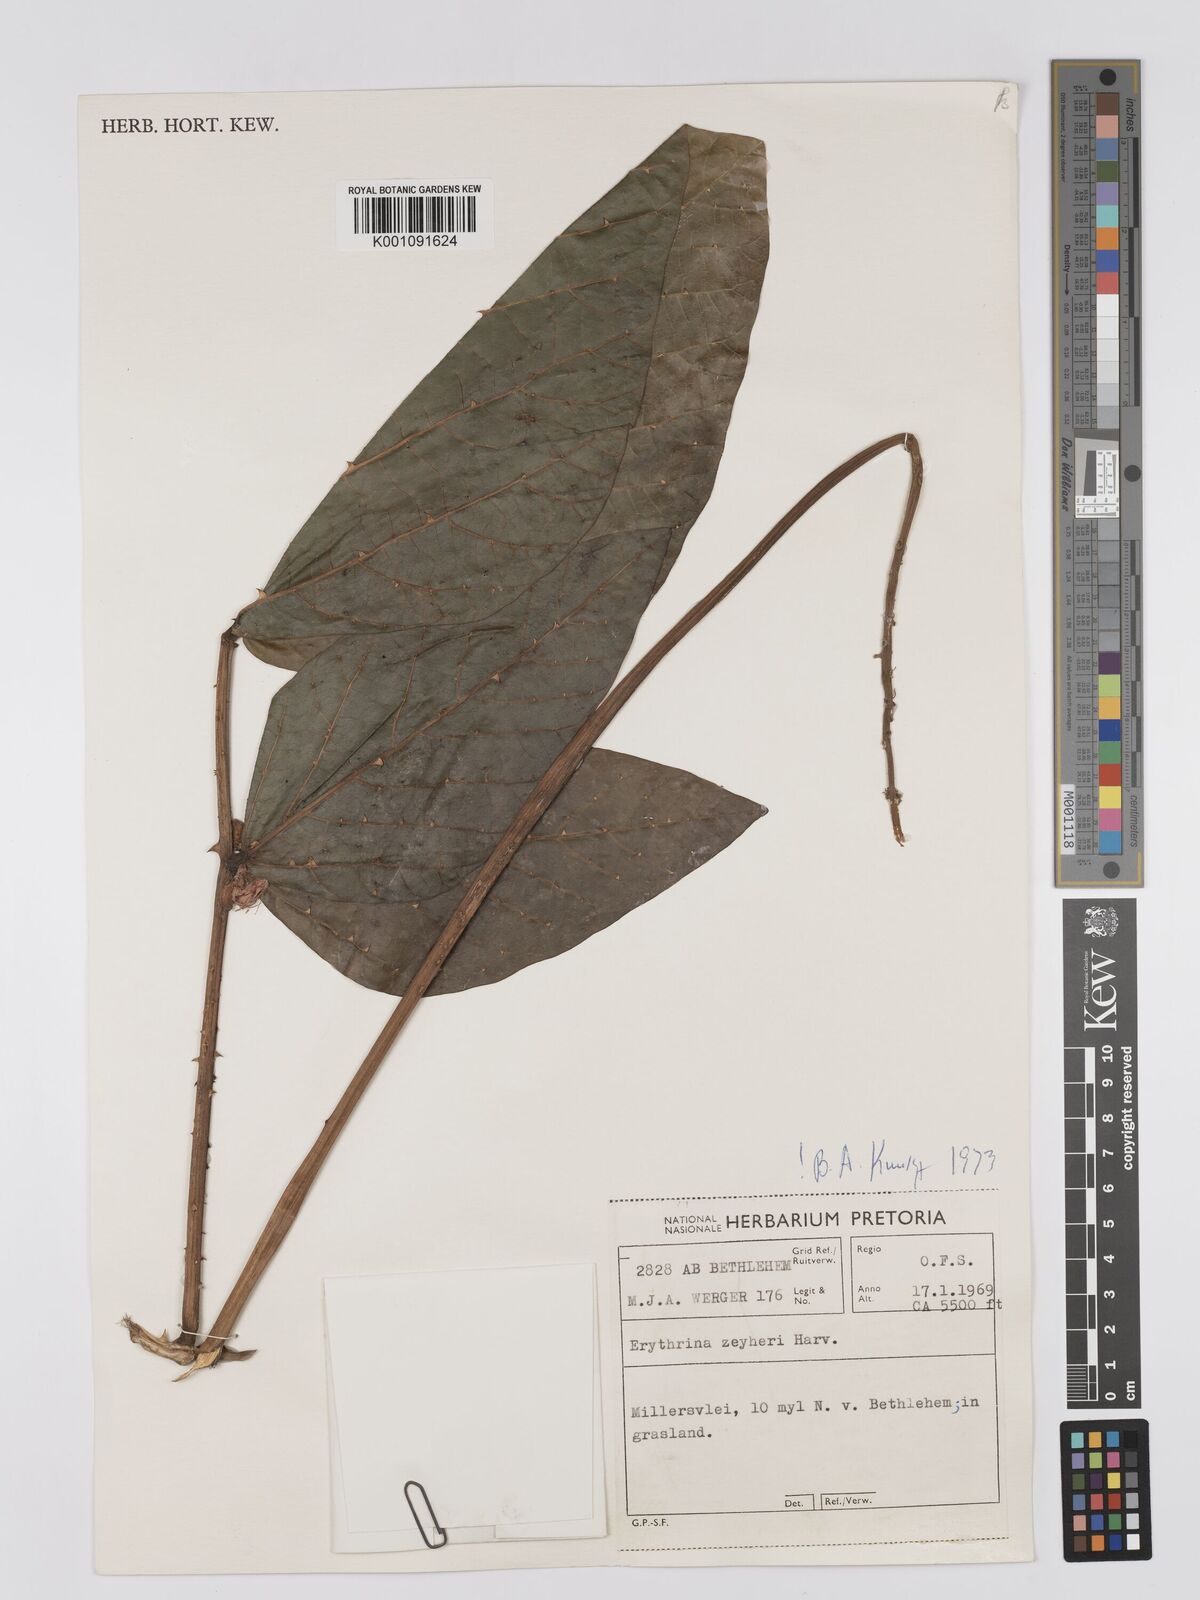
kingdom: Plantae
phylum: Tracheophyta
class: Magnoliopsida
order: Fabales
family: Fabaceae
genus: Erythrina
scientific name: Erythrina zeyheri
